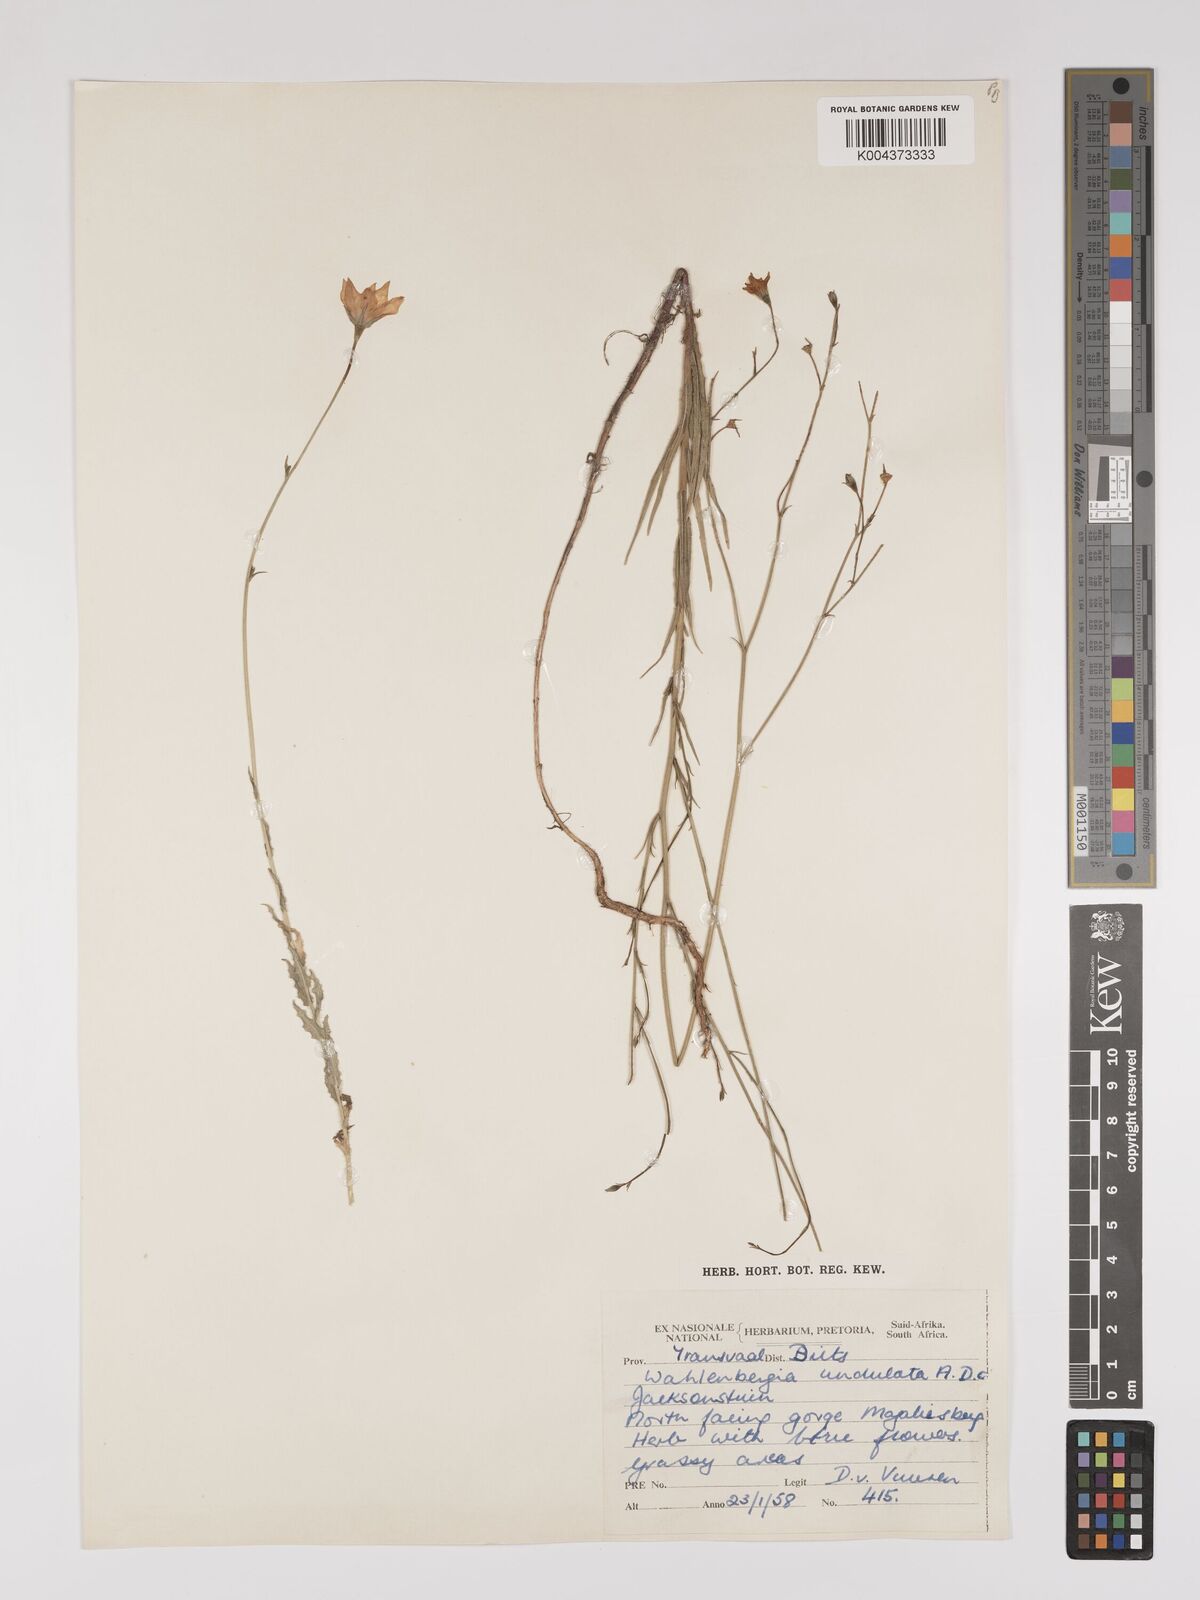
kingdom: Plantae
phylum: Tracheophyta
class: Magnoliopsida
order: Asterales
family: Campanulaceae
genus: Wahlenbergia
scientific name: Wahlenbergia undulata
